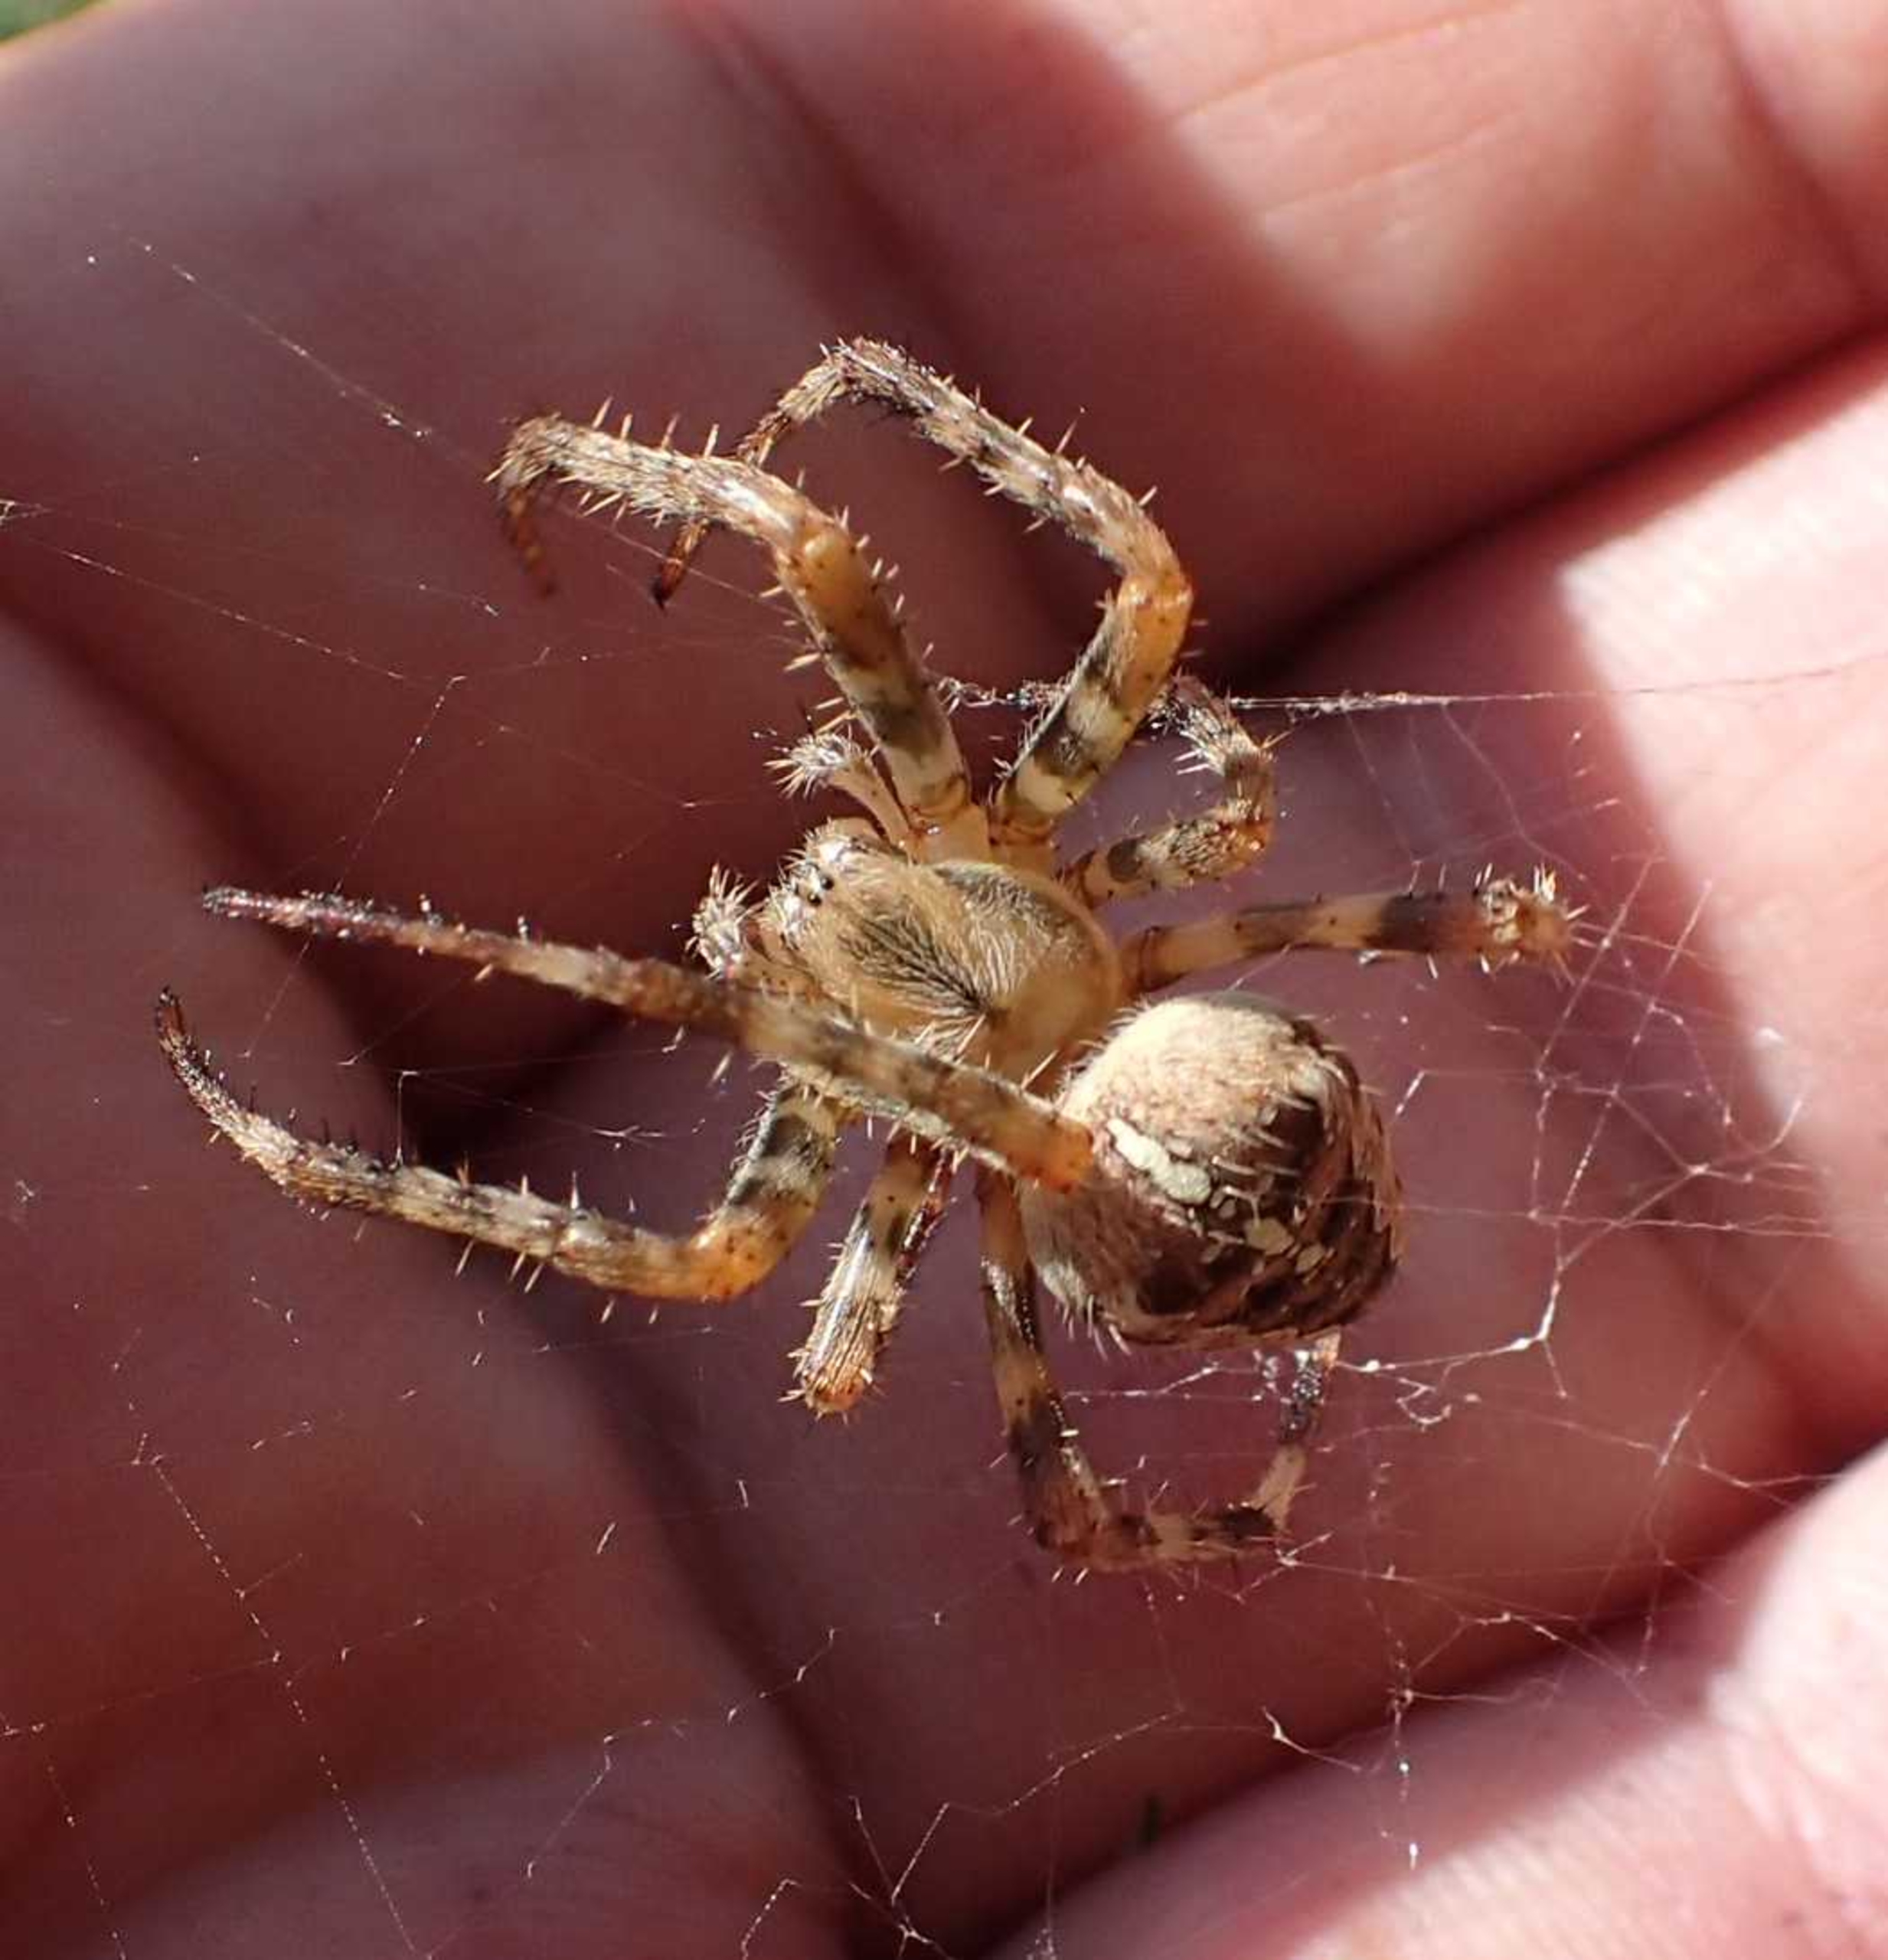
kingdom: Animalia
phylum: Arthropoda
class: Arachnida
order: Araneae
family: Araneidae
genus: Araneus
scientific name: Araneus diadematus
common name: Korsedderkop
